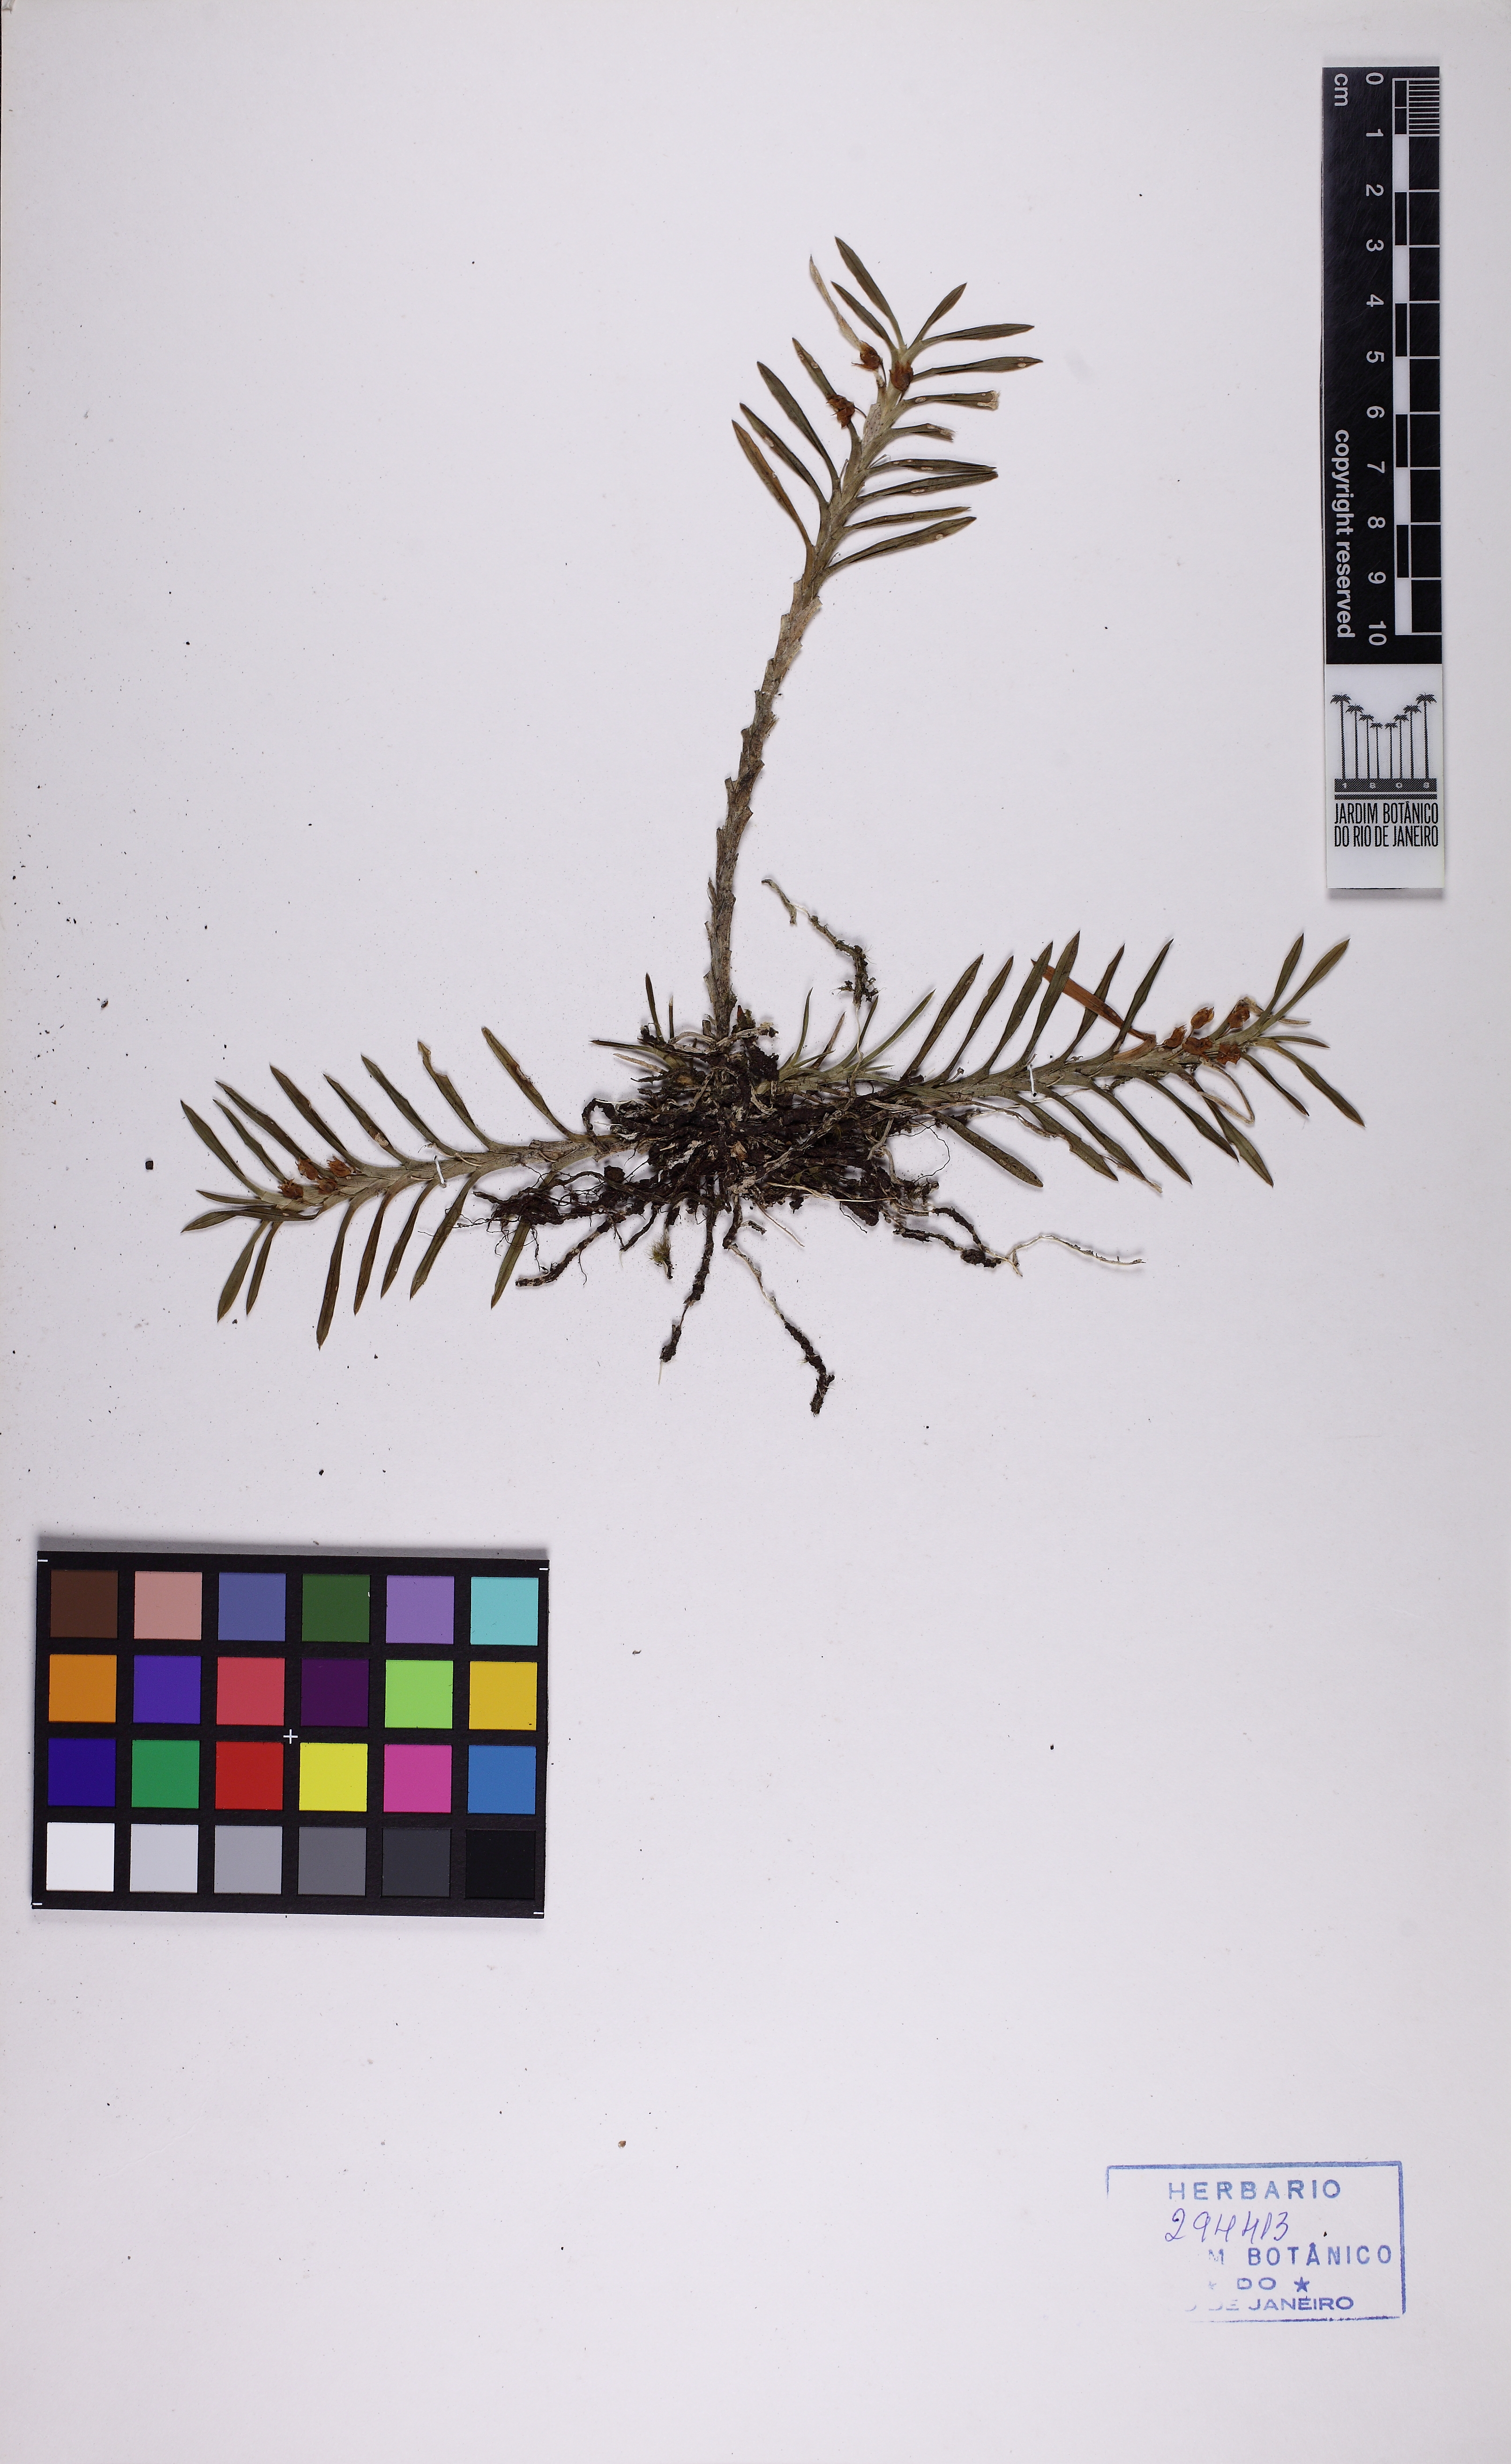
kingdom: Plantae
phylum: Tracheophyta
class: Liliopsida
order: Asparagales
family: Orchidaceae
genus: Dichaea
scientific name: Dichaea cogniauxiana
